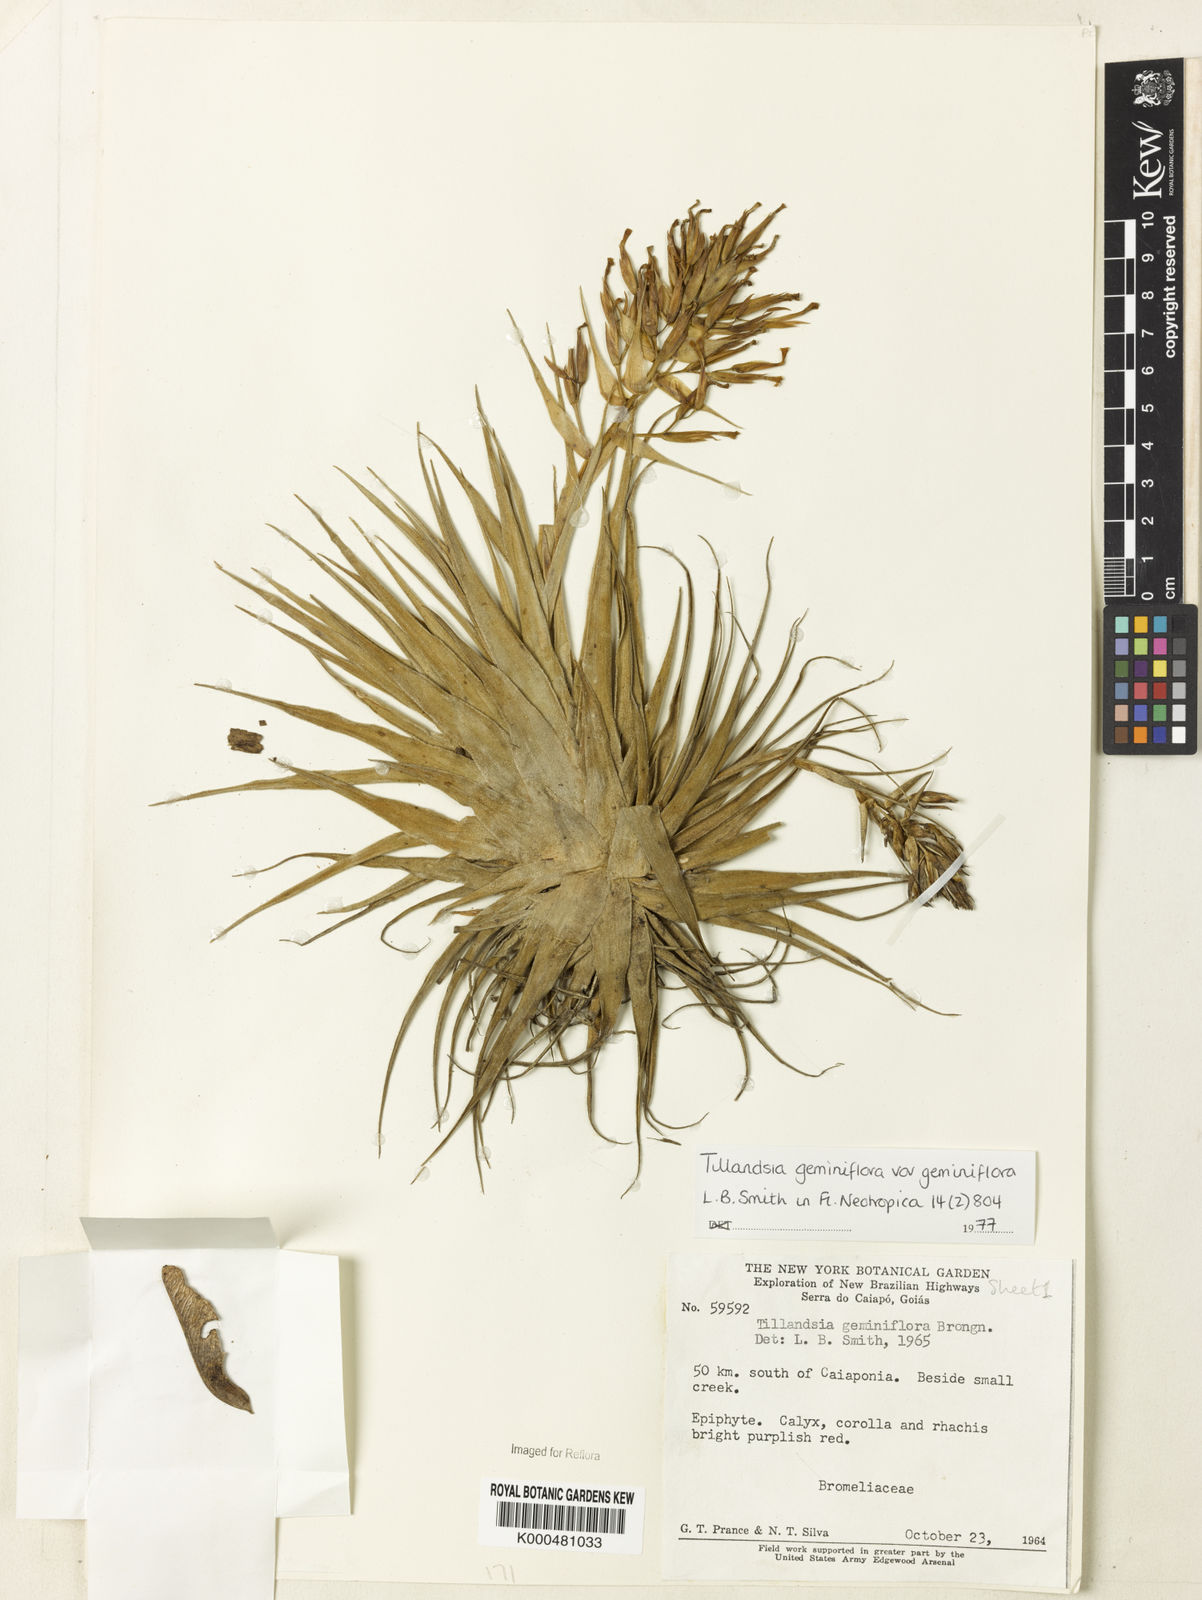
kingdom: Plantae
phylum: Tracheophyta
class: Liliopsida
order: Poales
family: Bromeliaceae
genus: Tillandsia
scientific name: Tillandsia geminiflora
